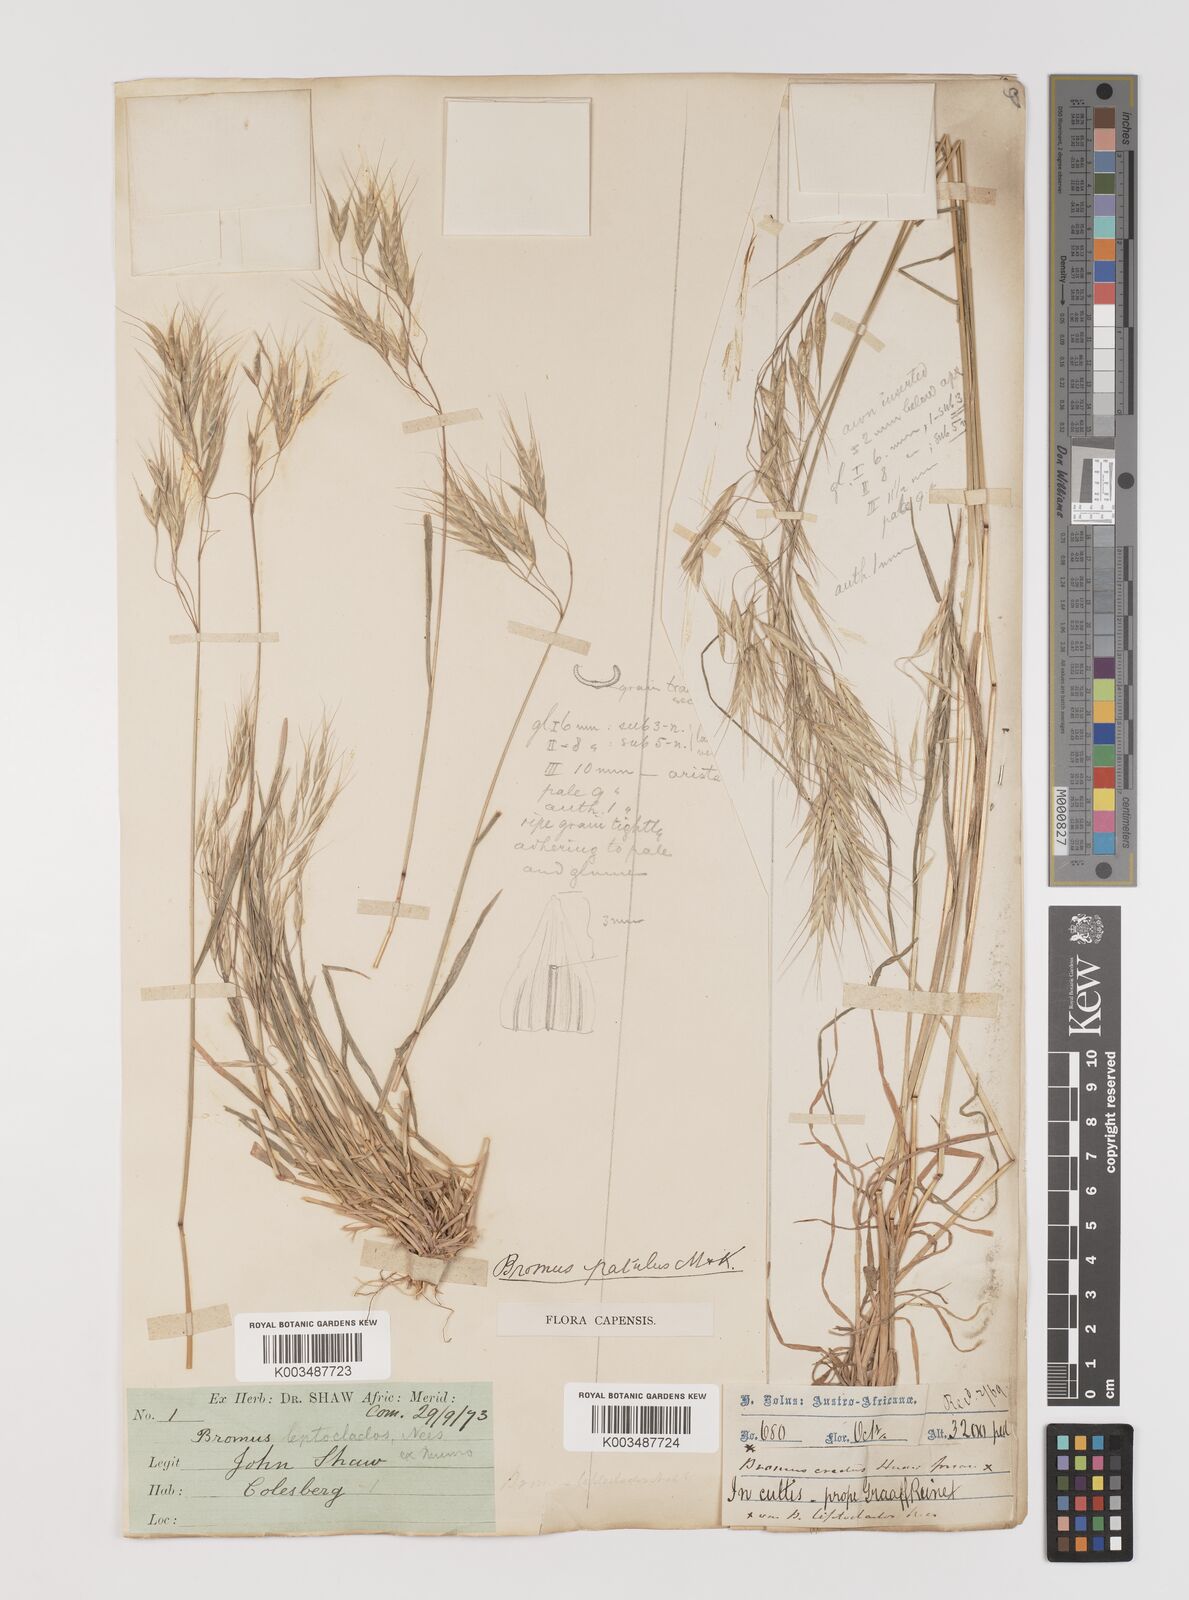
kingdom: Plantae
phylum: Tracheophyta
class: Liliopsida
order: Poales
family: Poaceae
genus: Bromus
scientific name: Bromus pectinatus
